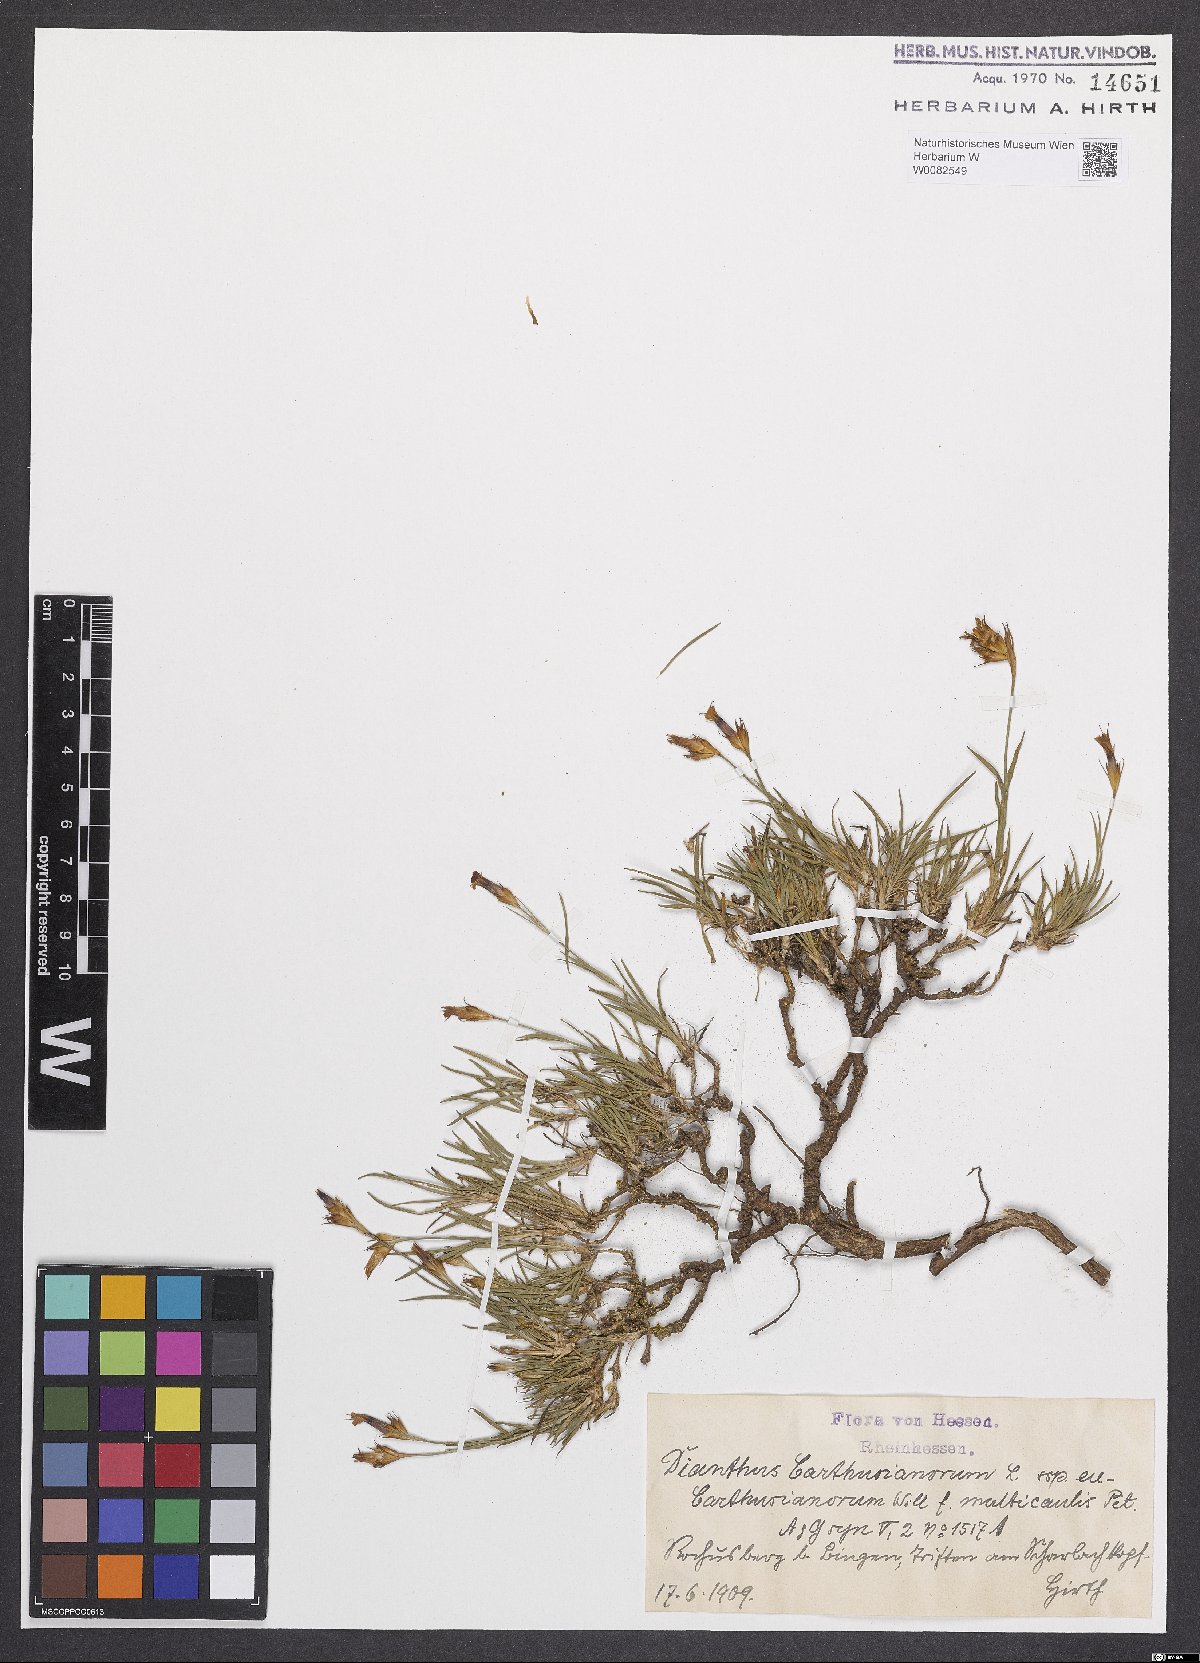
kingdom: Plantae
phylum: Tracheophyta
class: Magnoliopsida
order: Caryophyllales
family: Caryophyllaceae
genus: Dianthus
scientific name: Dianthus carthusianorum
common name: Carthusian pink
